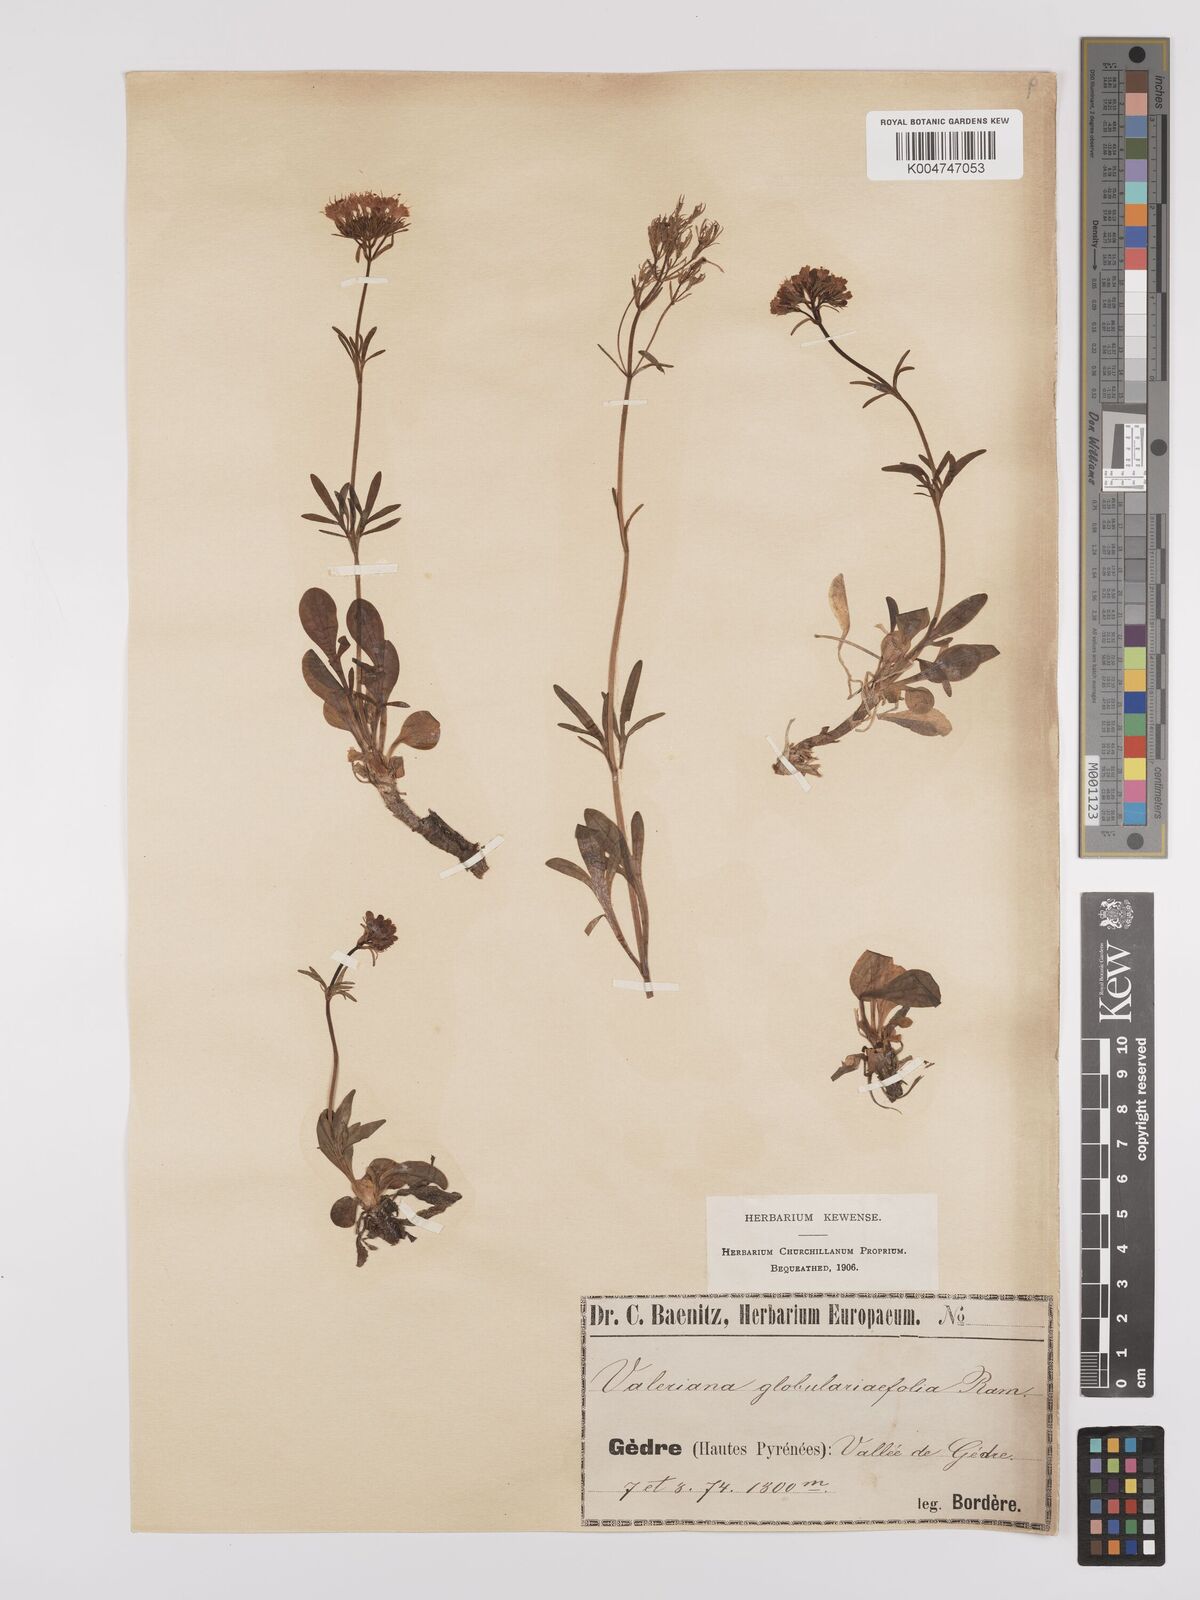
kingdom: Plantae
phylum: Tracheophyta
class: Magnoliopsida
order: Dipsacales
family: Caprifoliaceae
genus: Valeriana
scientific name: Valeriana apula
